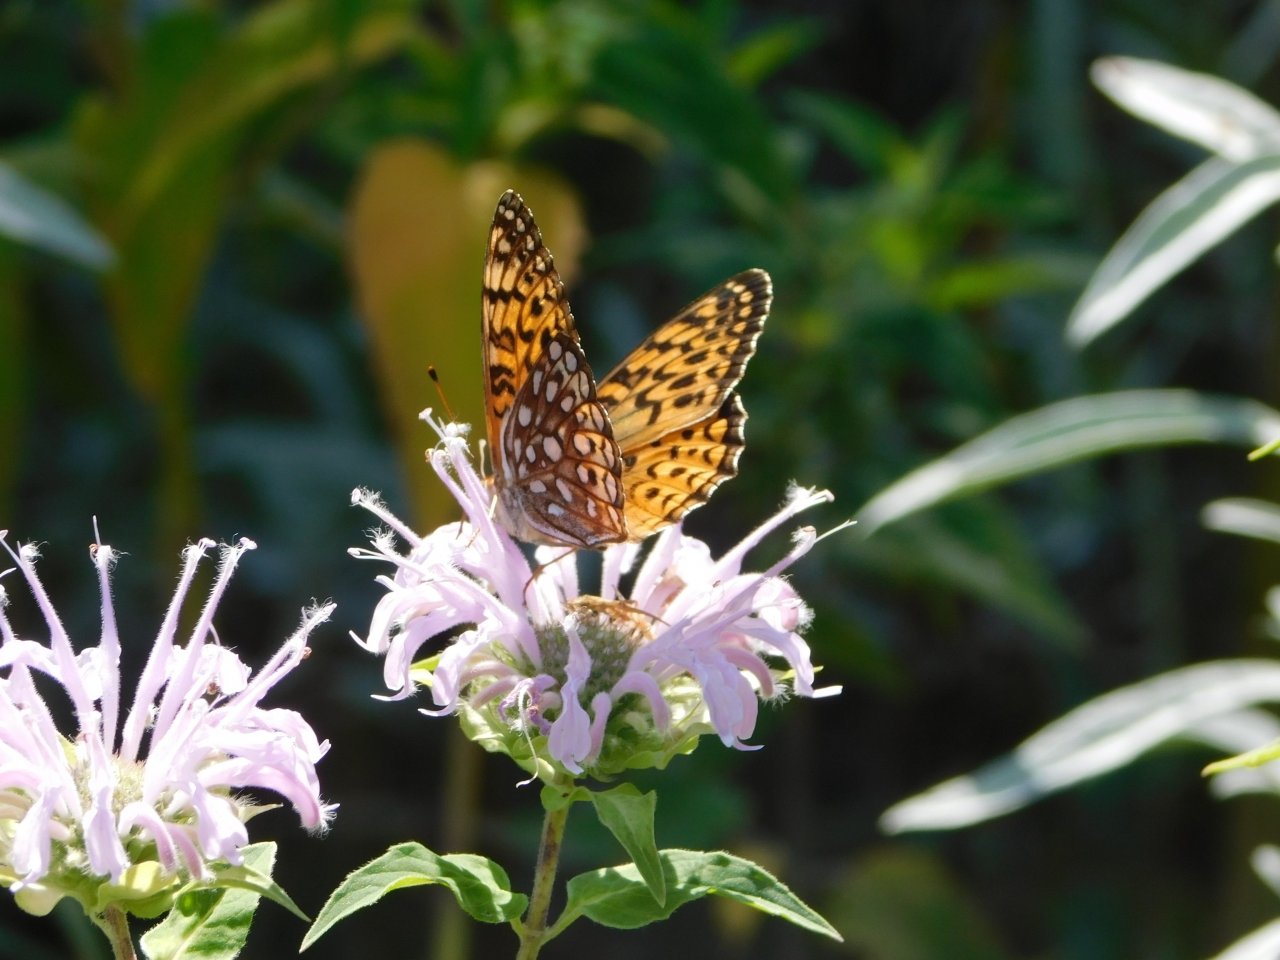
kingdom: Animalia
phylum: Arthropoda
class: Insecta
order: Lepidoptera
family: Nymphalidae
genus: Speyeria
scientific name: Speyeria atlantis
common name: Atlantis Fritillary
